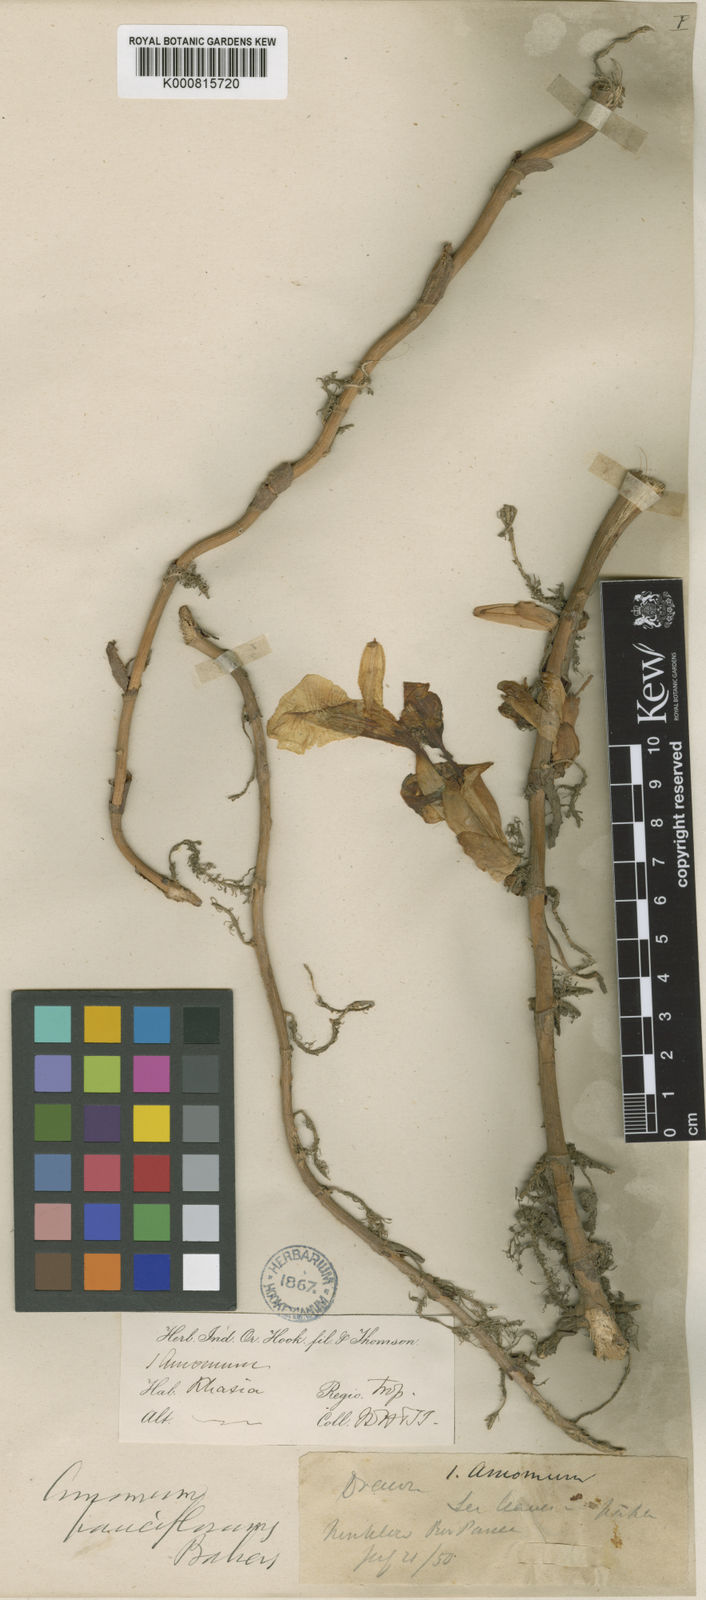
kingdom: Plantae
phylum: Tracheophyta
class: Liliopsida
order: Zingiberales
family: Zingiberaceae
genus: Amomum
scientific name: Amomum pauciflorum
